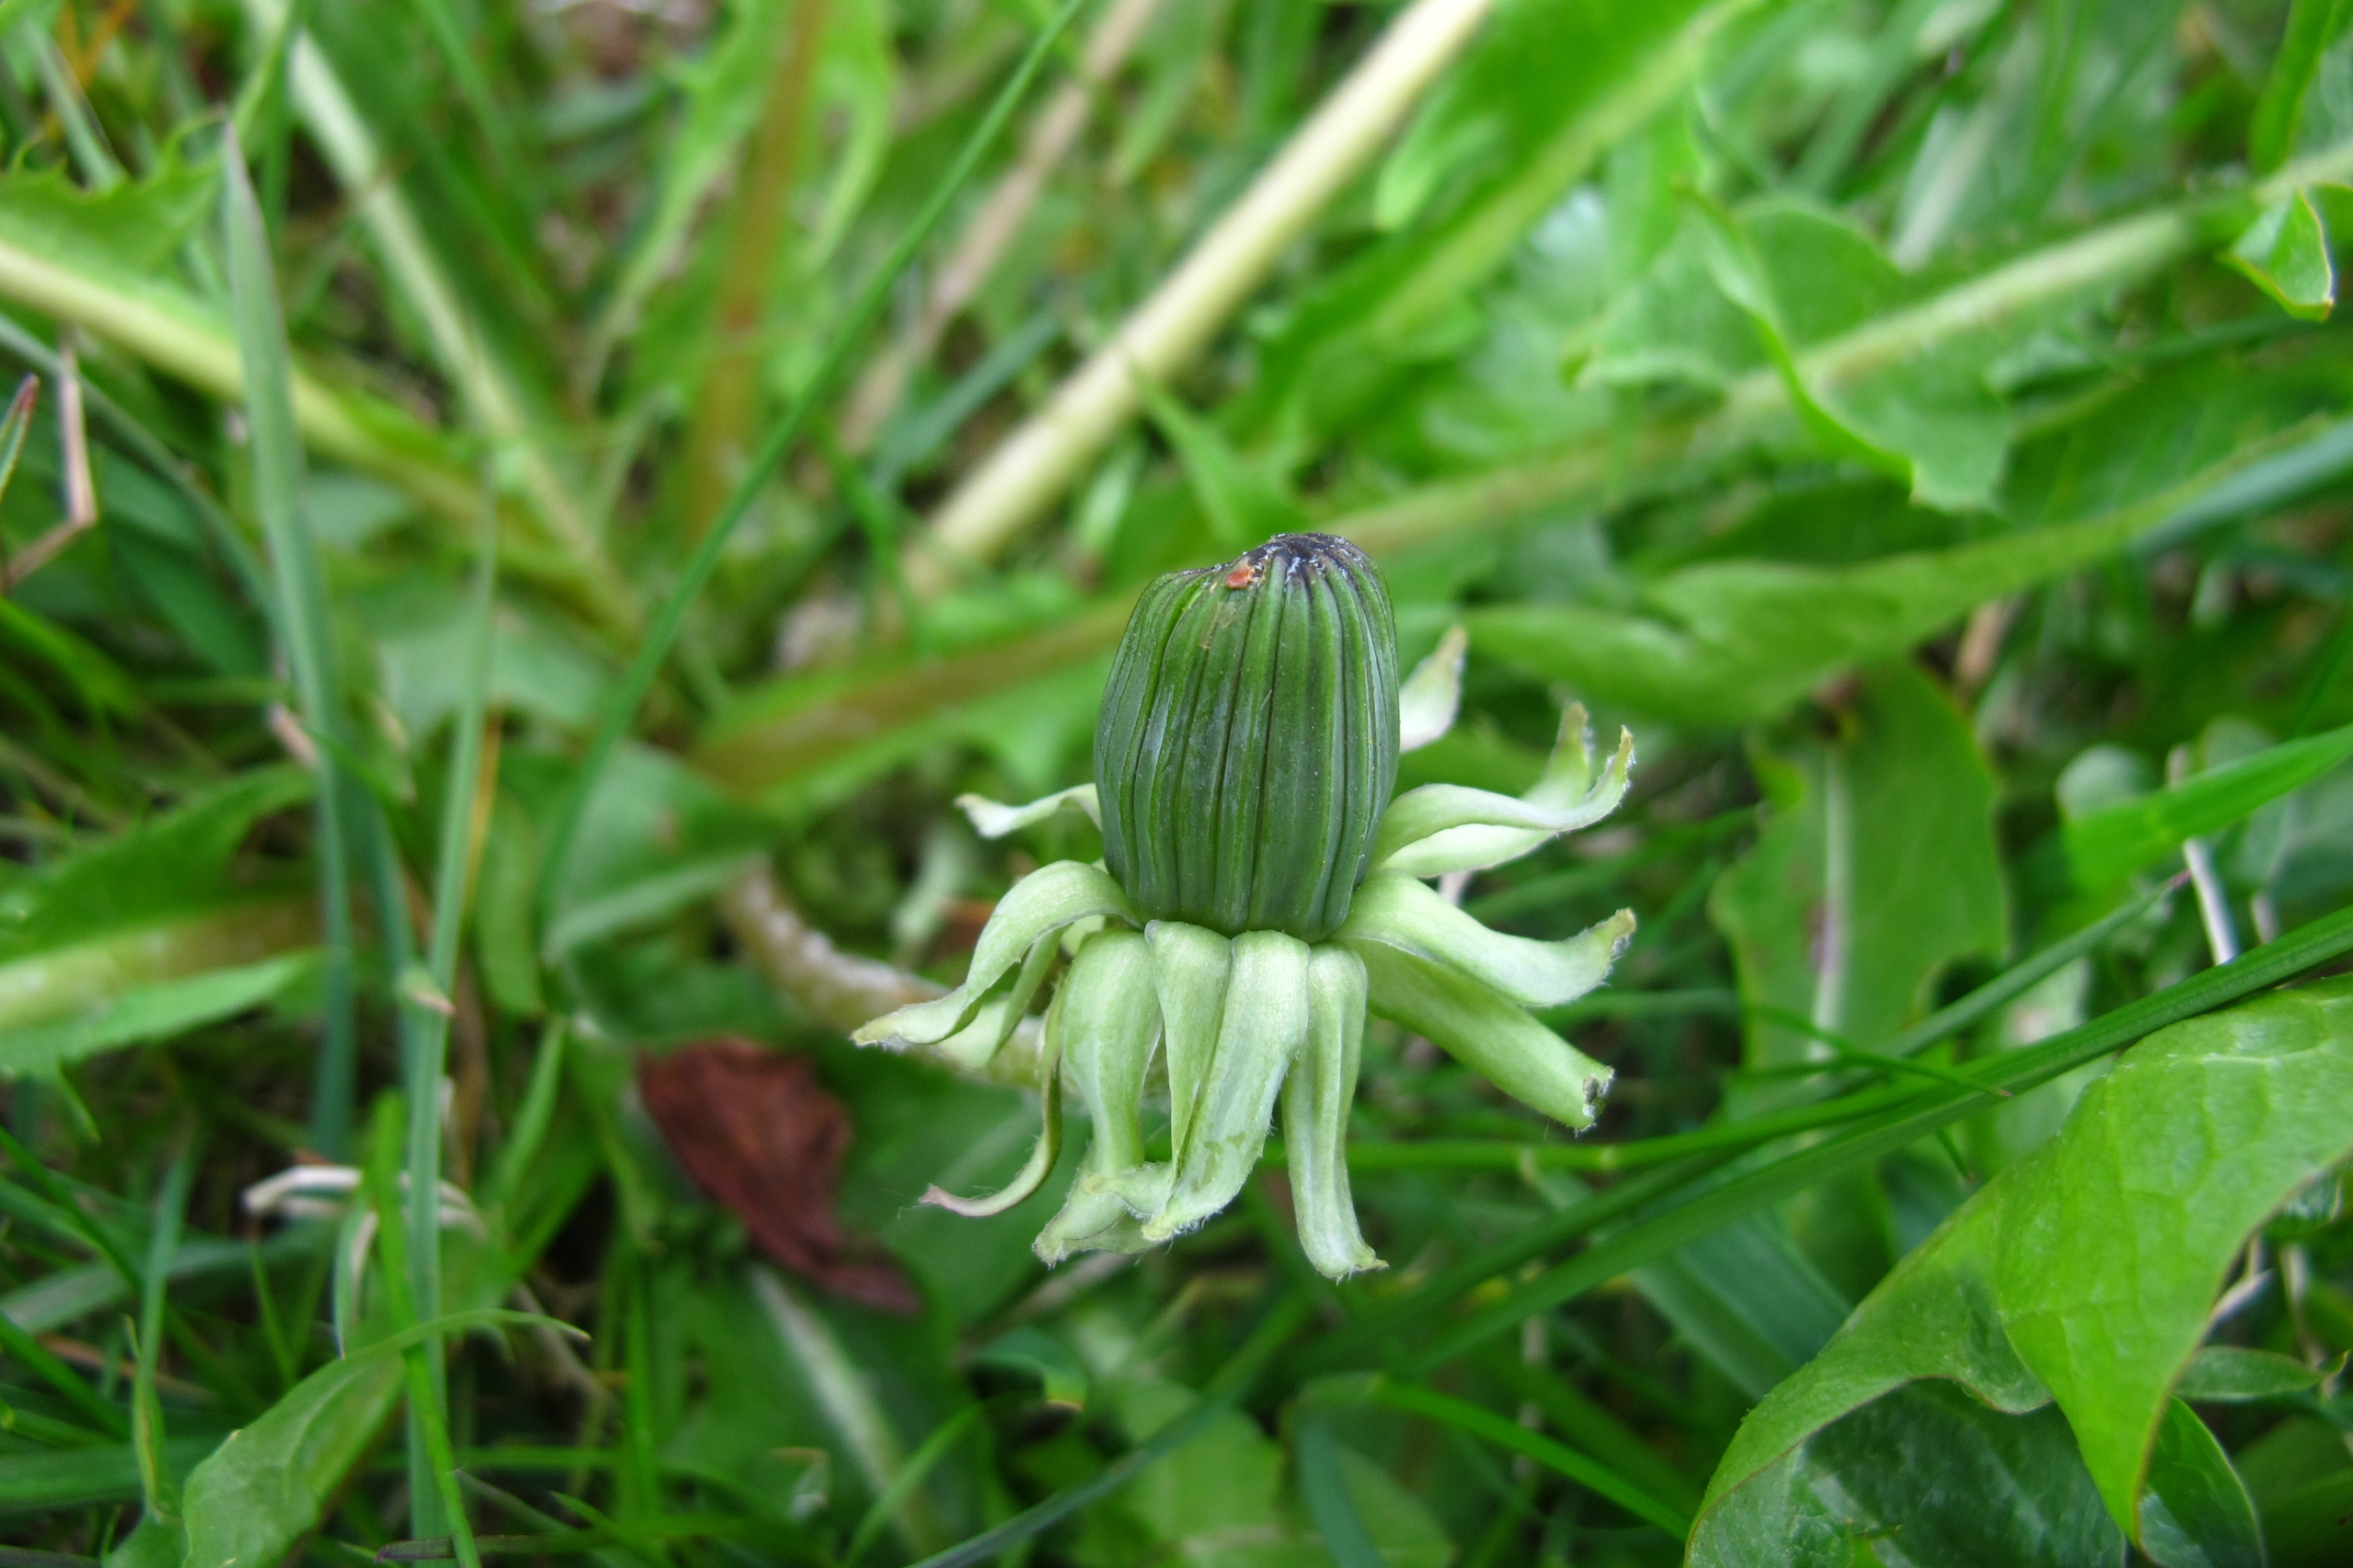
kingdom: Plantae
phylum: Tracheophyta
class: Magnoliopsida
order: Asterales
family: Asteraceae
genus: Taraxacum
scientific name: Taraxacum pronilobum
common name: Skæv vejmælkebøtte
